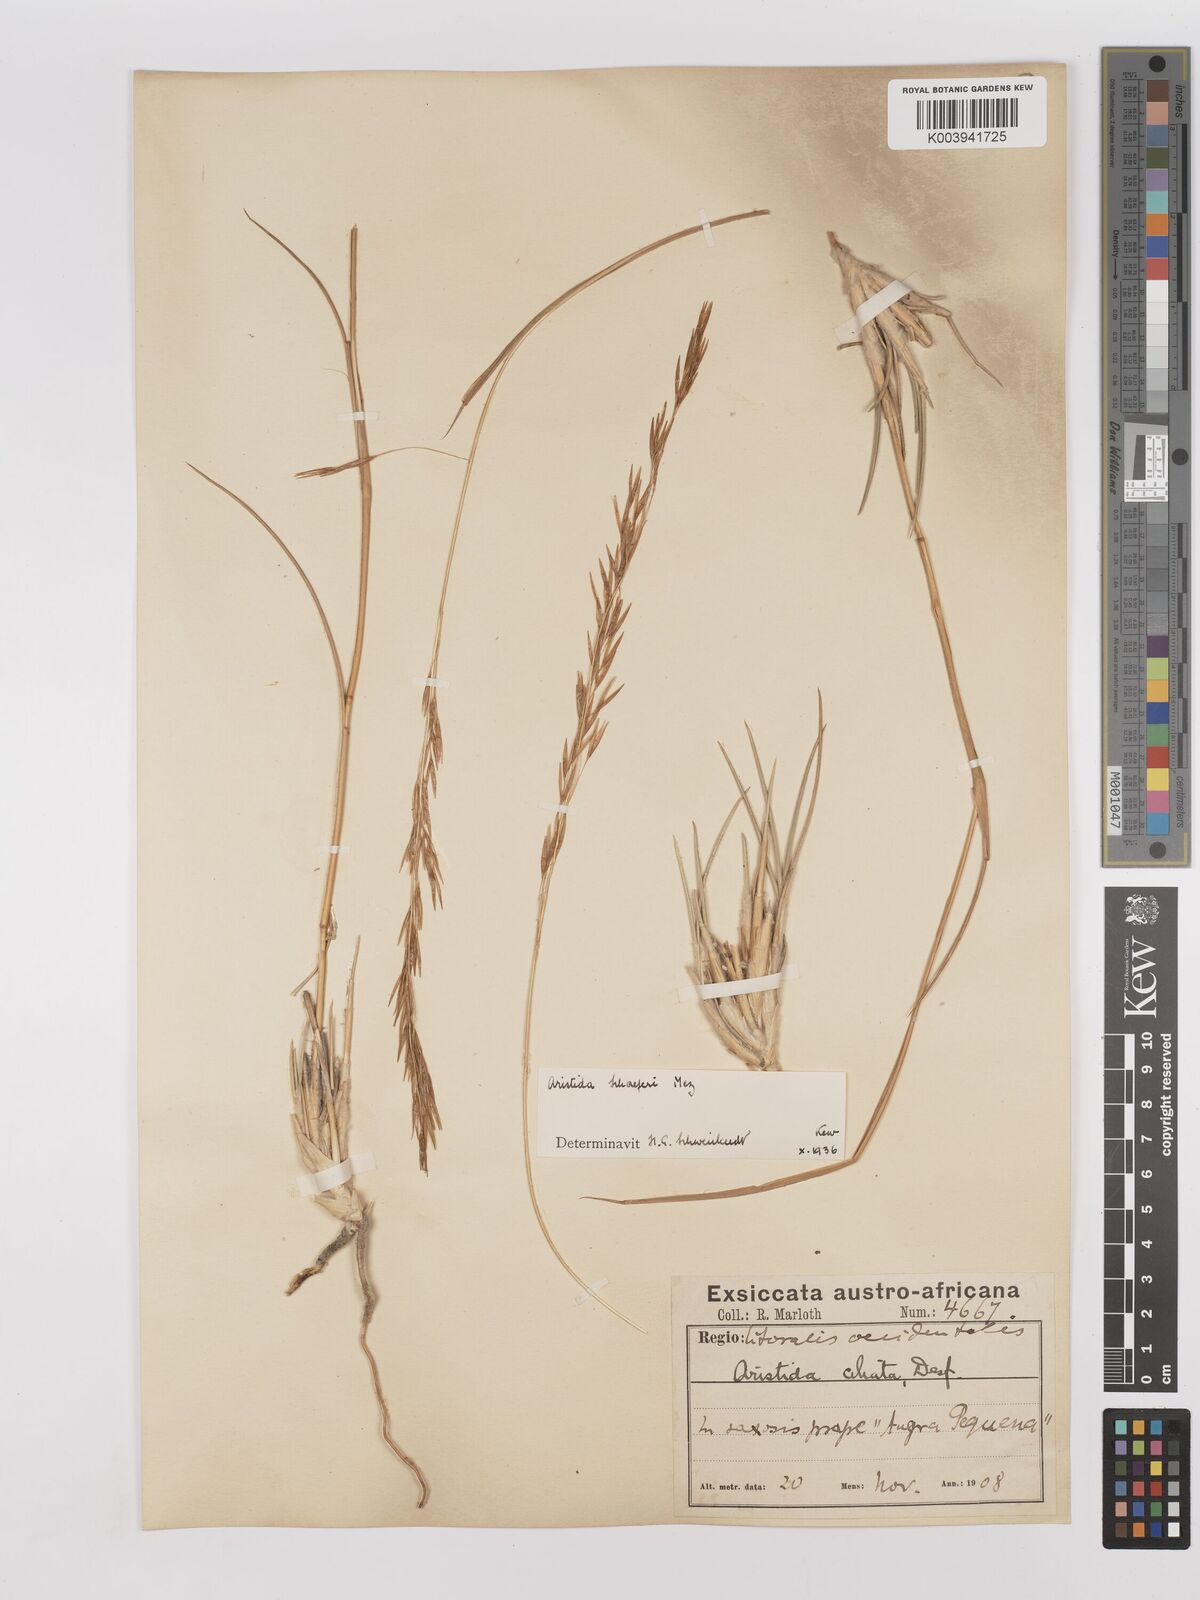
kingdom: Plantae
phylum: Tracheophyta
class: Liliopsida
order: Poales
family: Poaceae
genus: Stipagrostis
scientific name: Stipagrostis schaeferi
